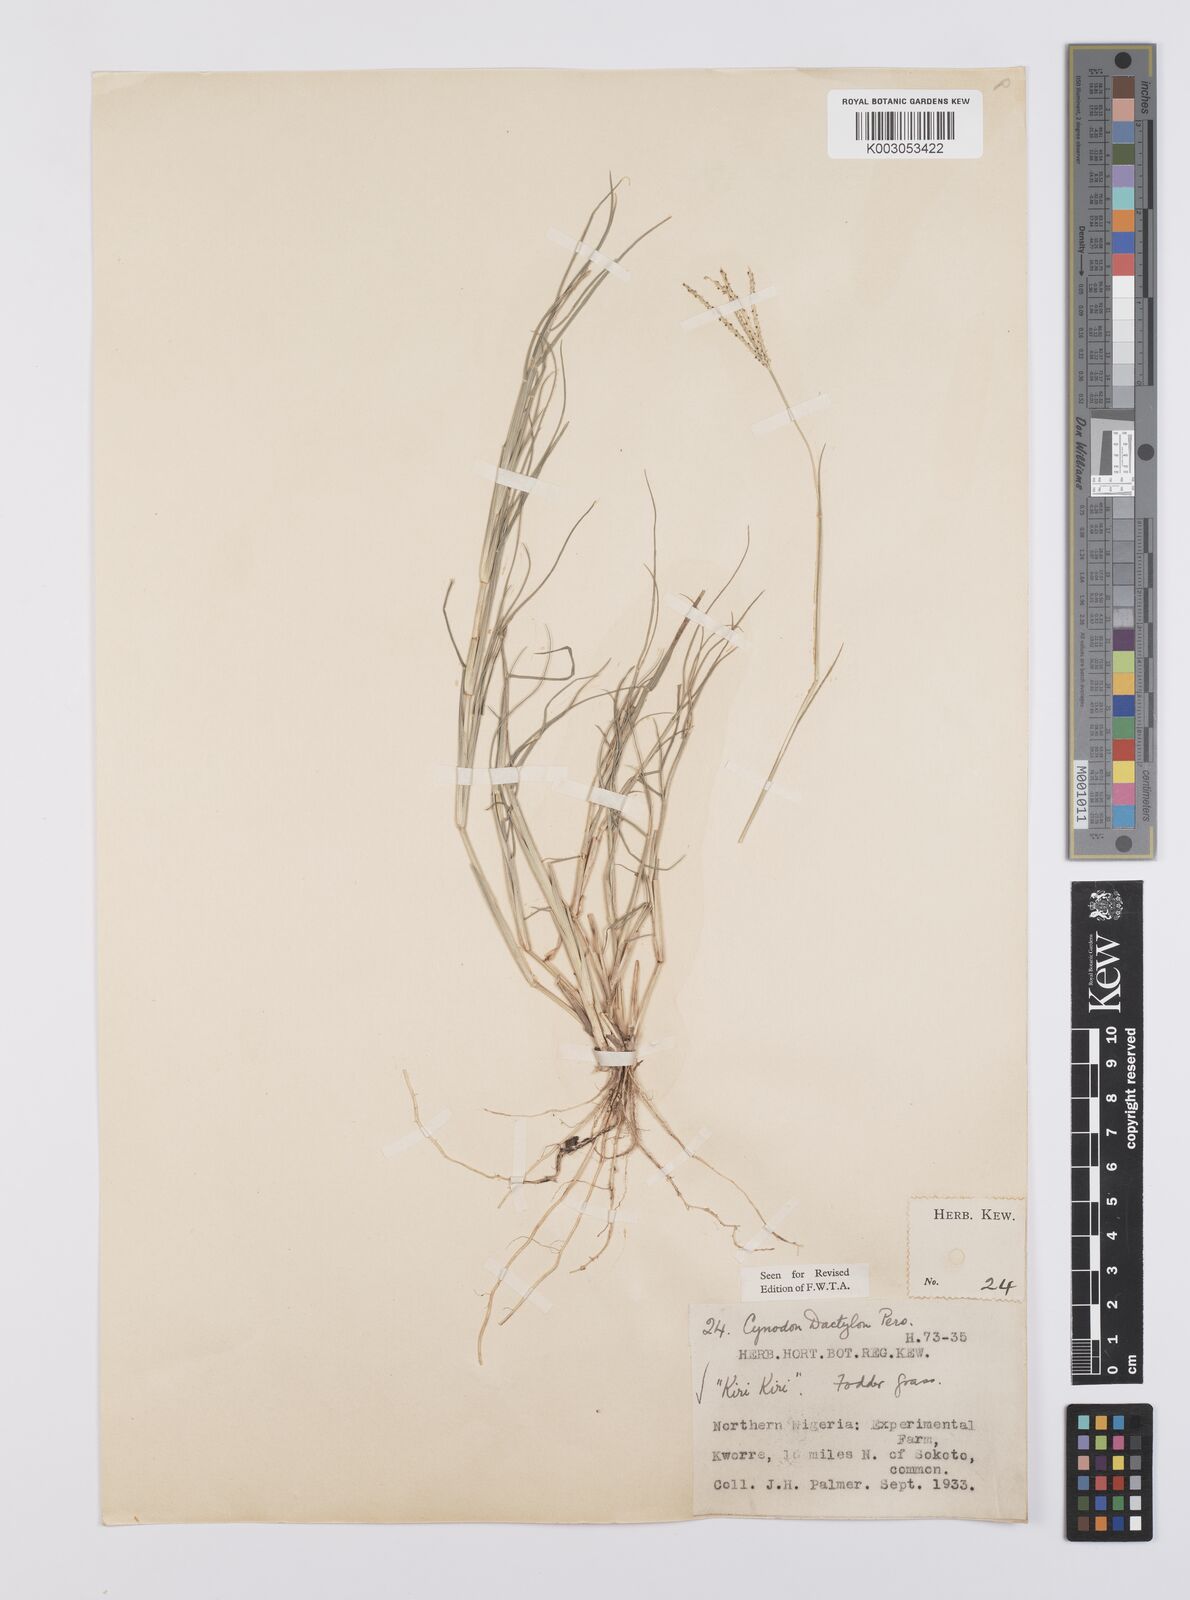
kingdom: Plantae
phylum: Tracheophyta
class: Liliopsida
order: Poales
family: Poaceae
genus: Cynodon
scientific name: Cynodon dactylon
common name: Bermuda grass
